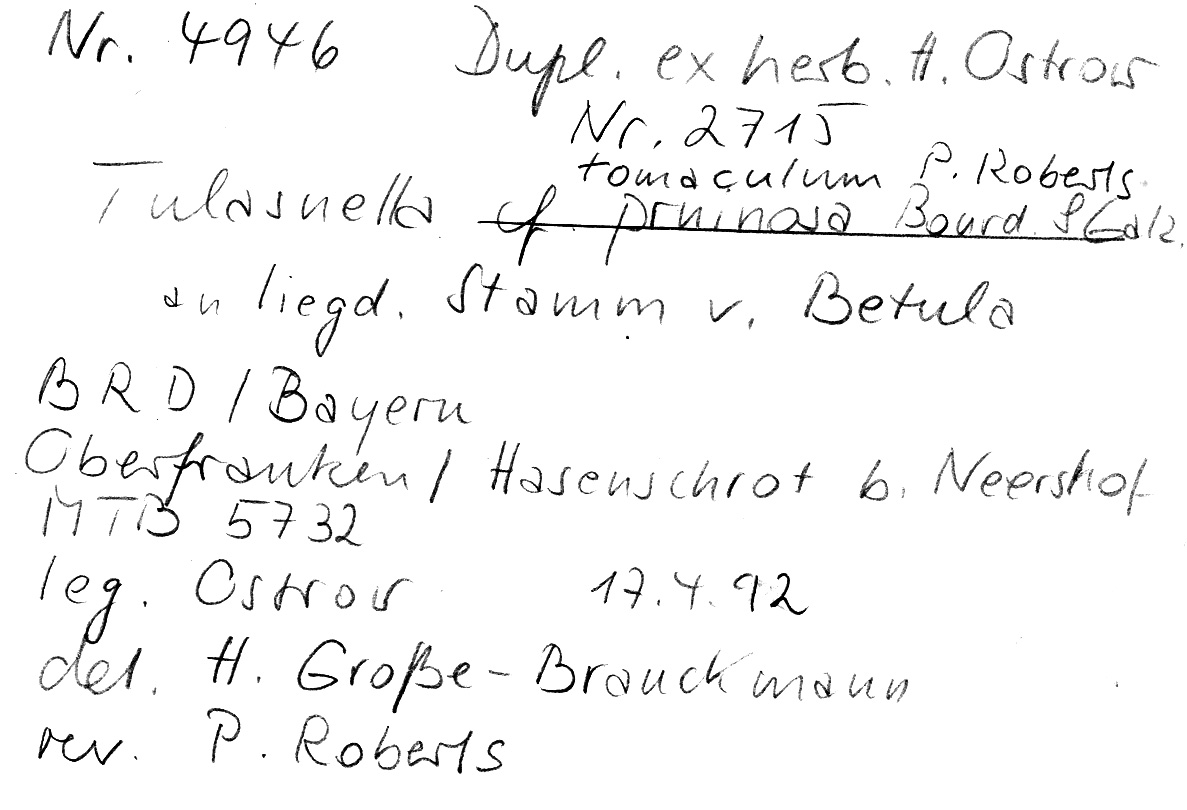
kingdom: Fungi
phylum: Basidiomycota
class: Agaricomycetes
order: Cantharellales
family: Tulasnellaceae
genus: Tulasnella
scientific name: Tulasnella tomaculum
